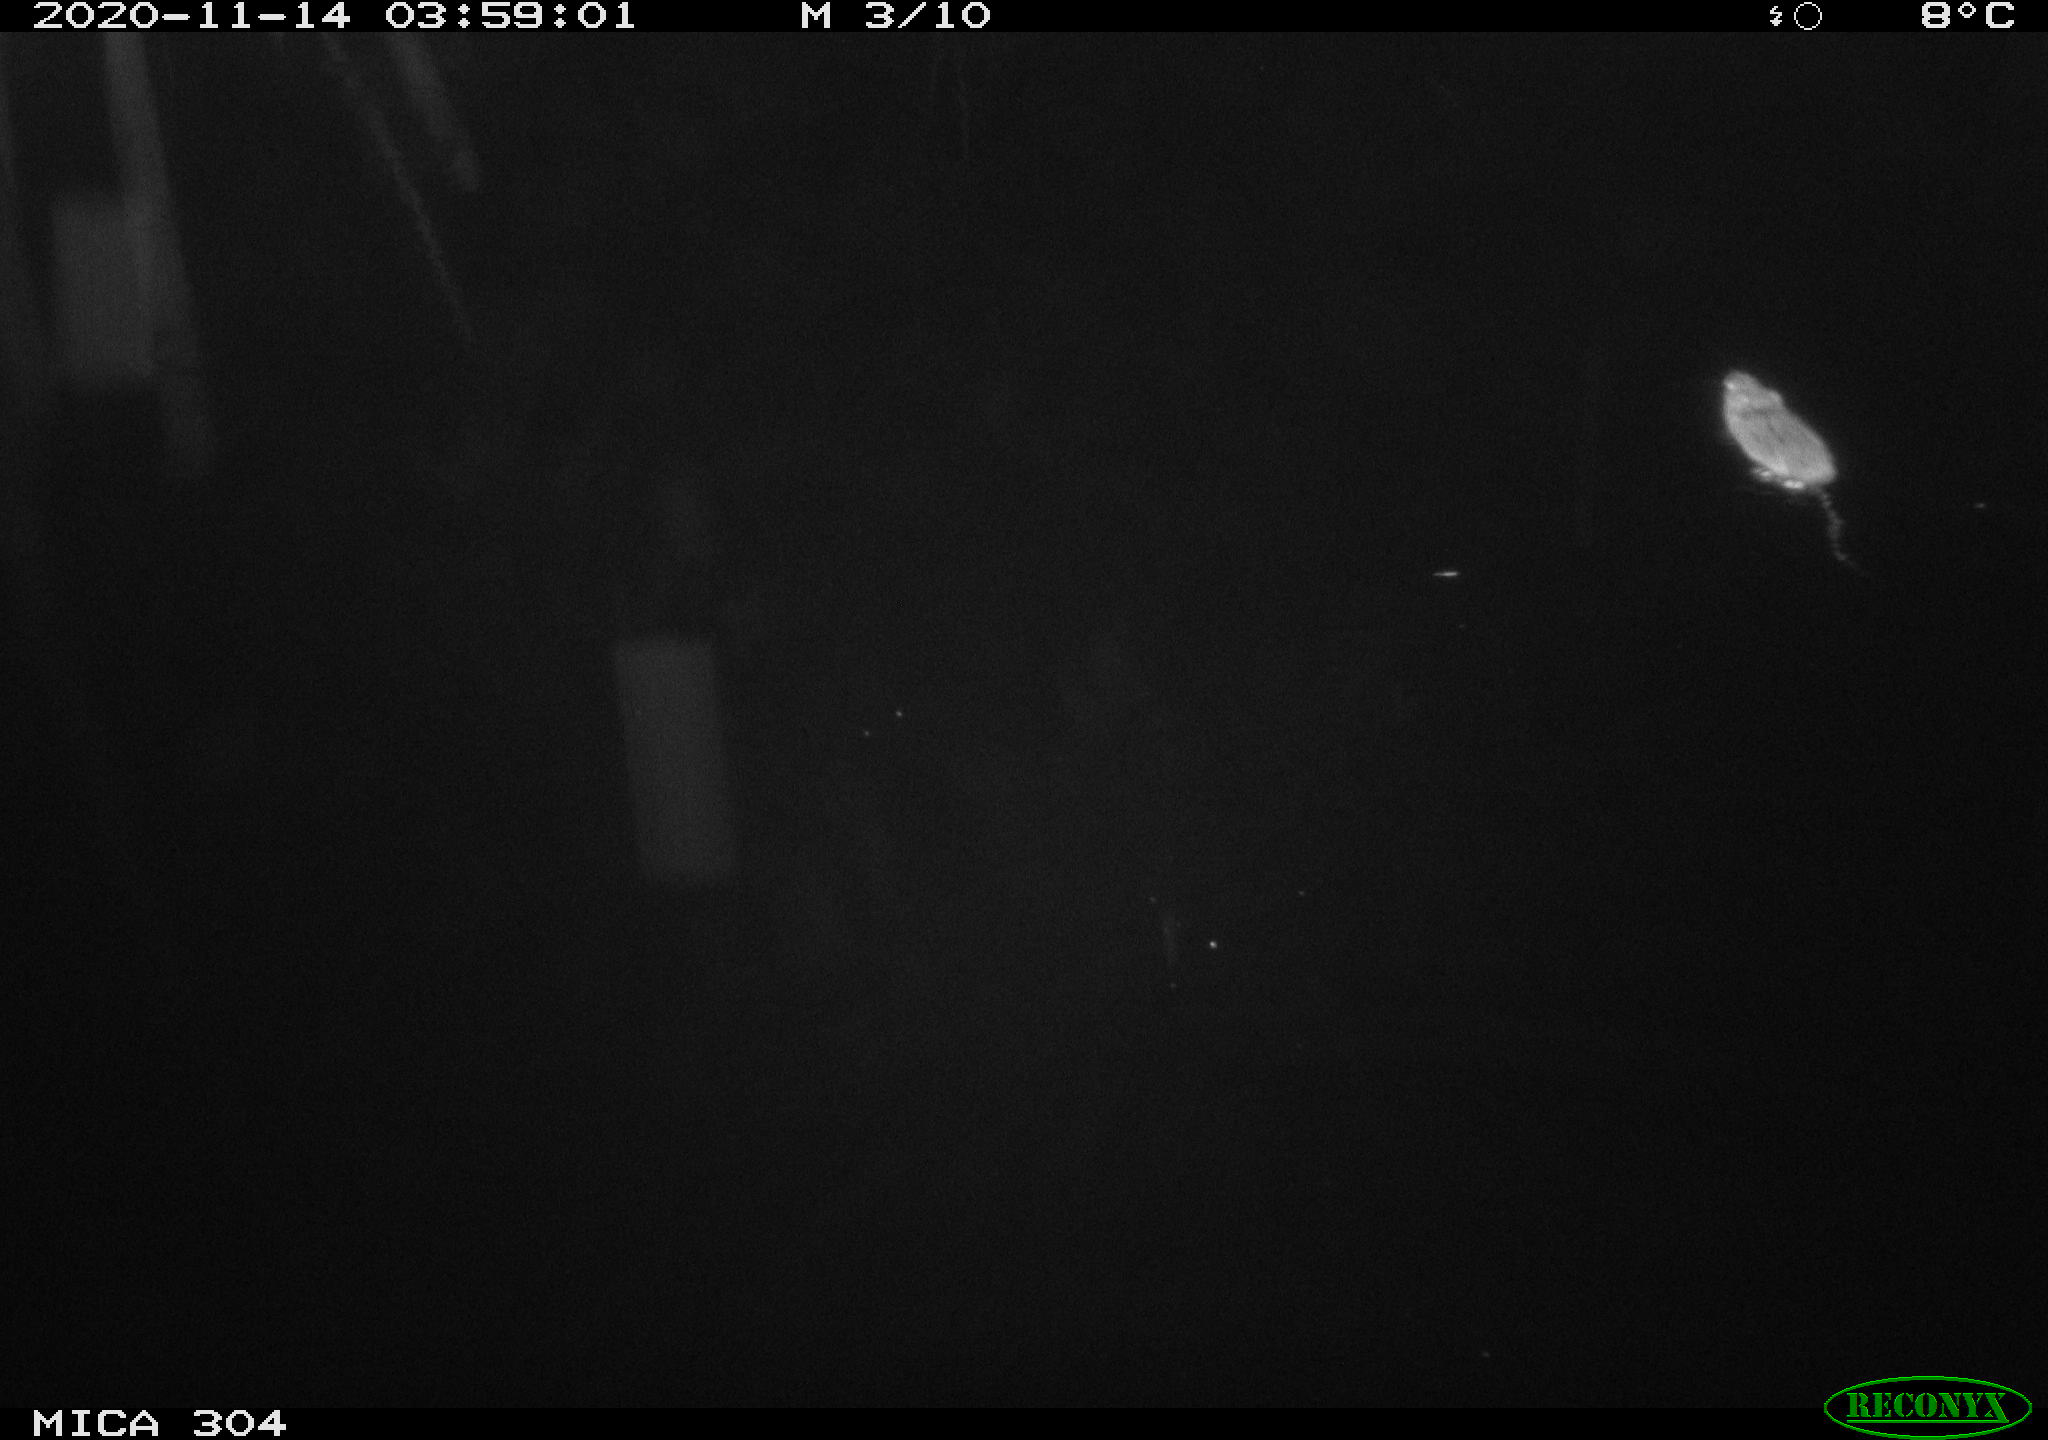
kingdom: Animalia
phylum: Chordata
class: Mammalia
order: Rodentia
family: Muridae
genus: Rattus
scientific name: Rattus norvegicus
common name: Brown rat
